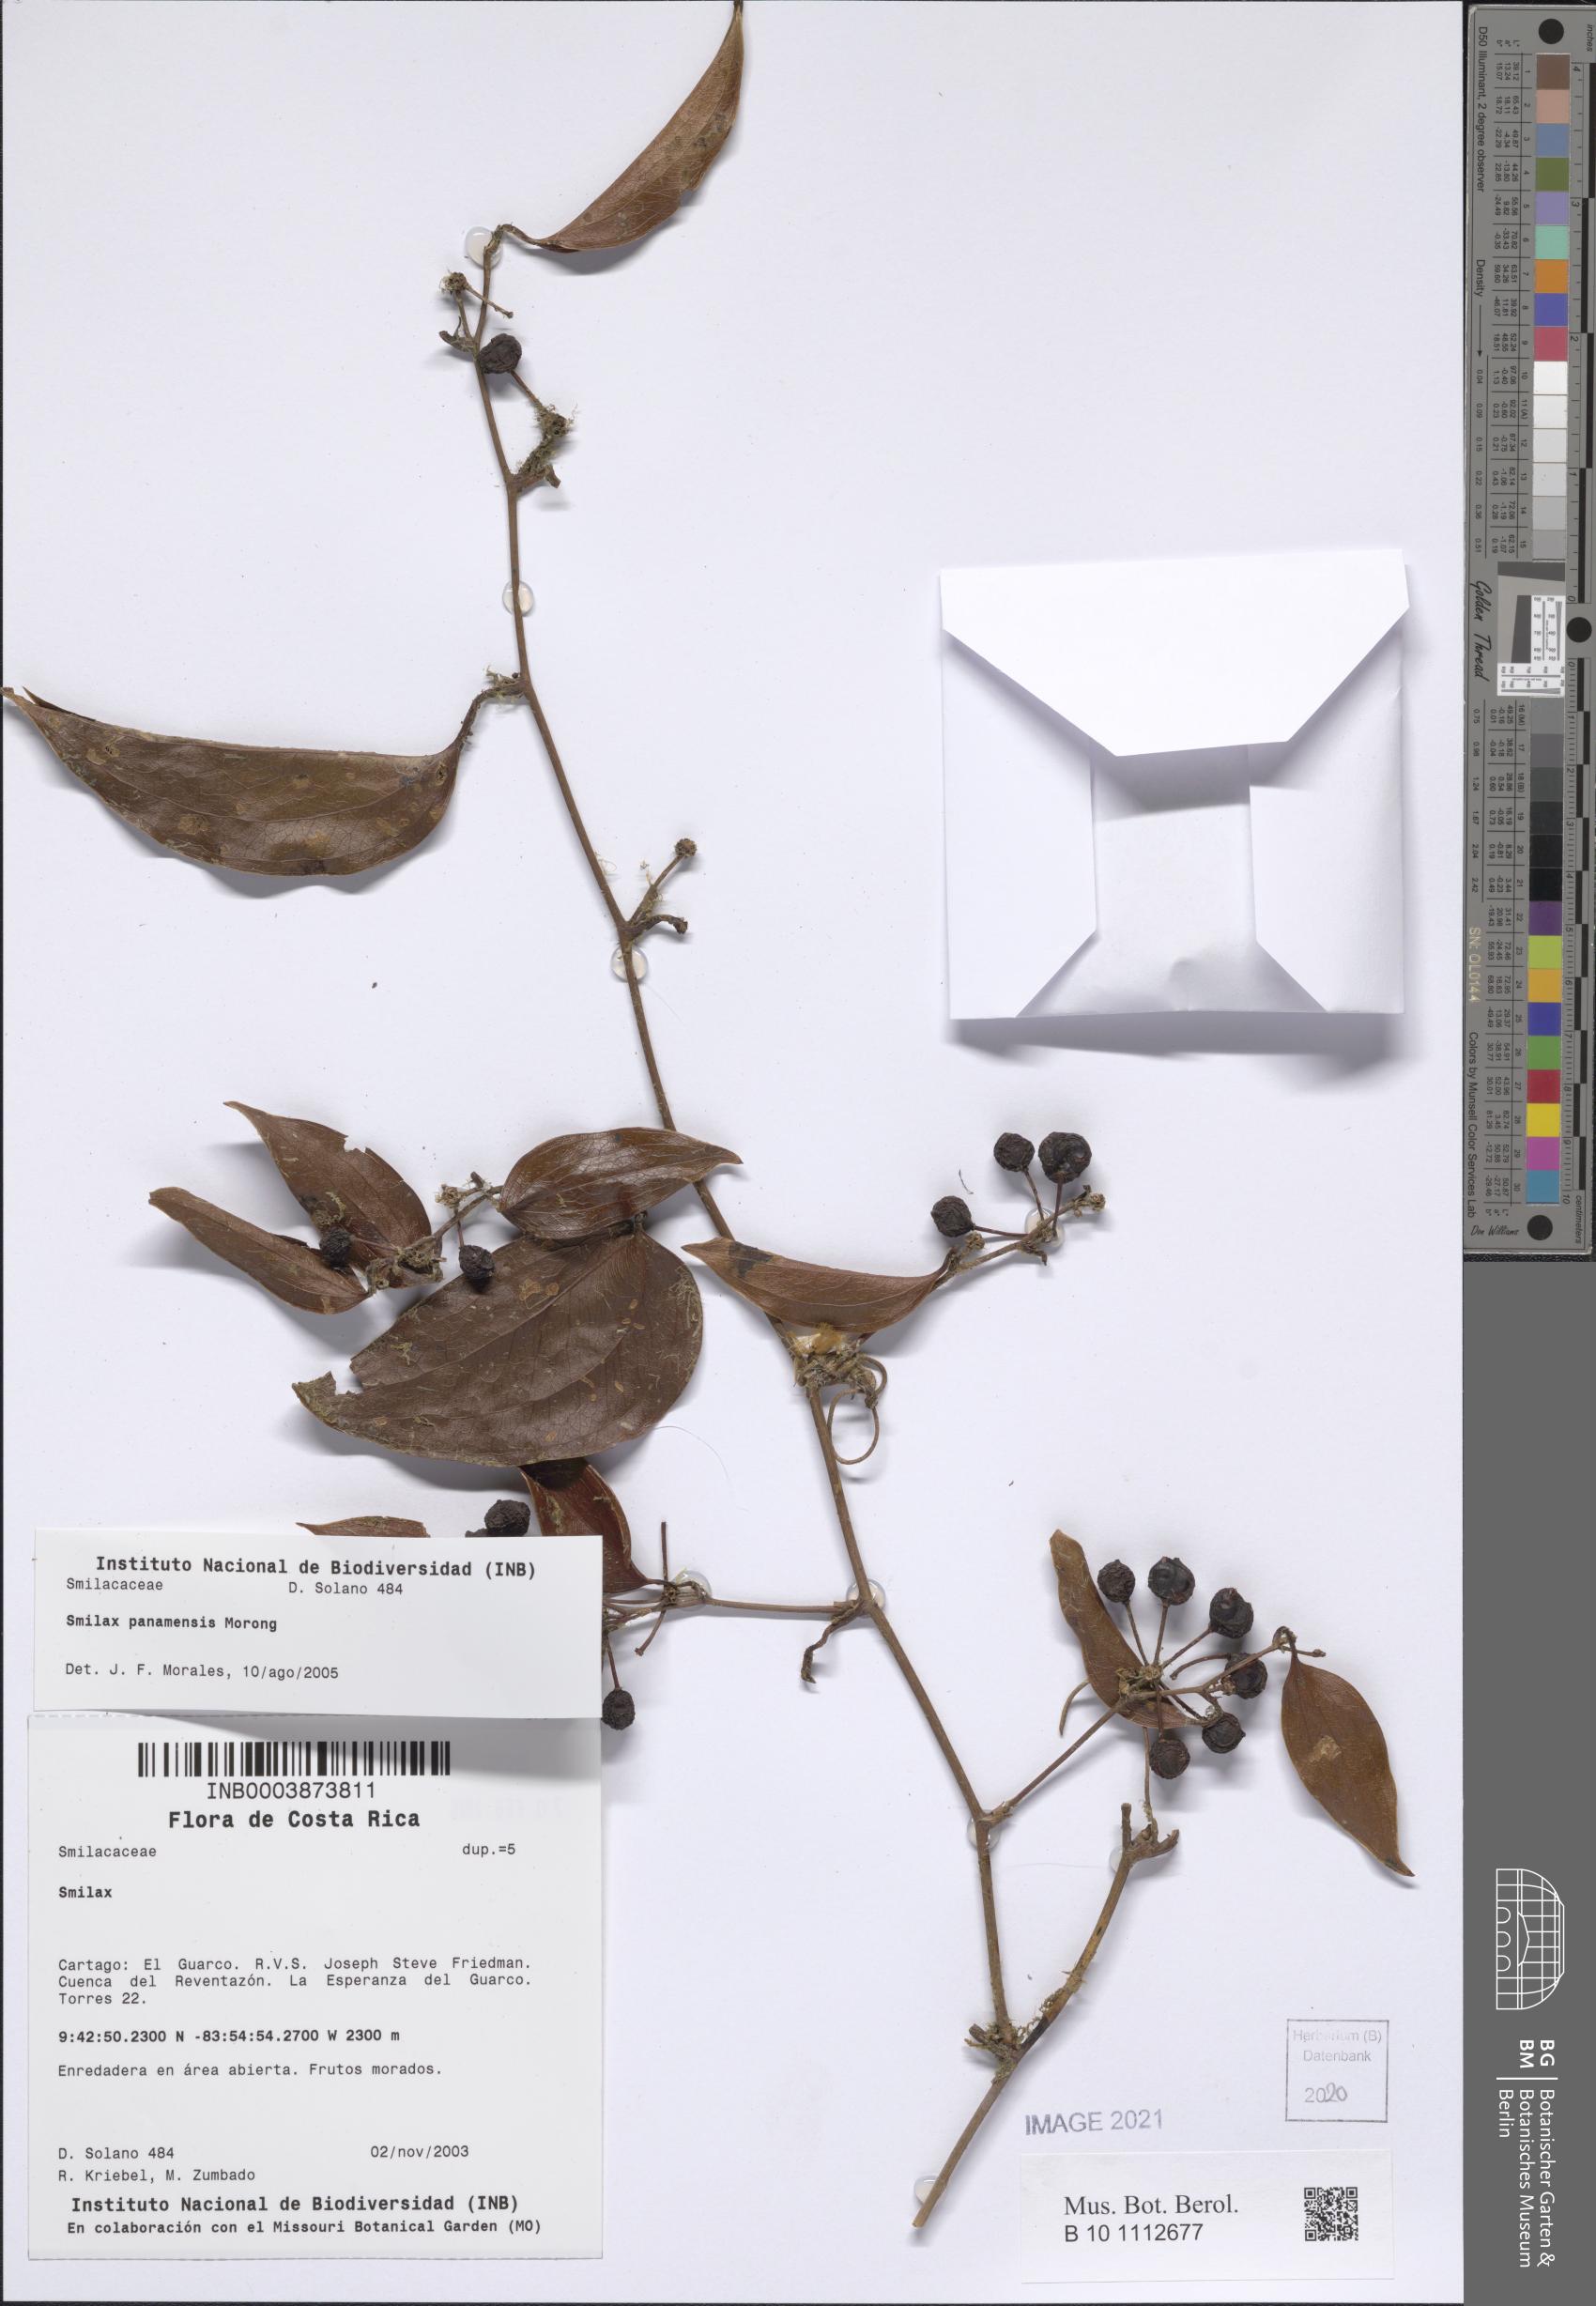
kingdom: Plantae
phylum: Tracheophyta
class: Liliopsida
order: Liliales
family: Smilacaceae
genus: Smilax
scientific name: Smilax purhampuy
